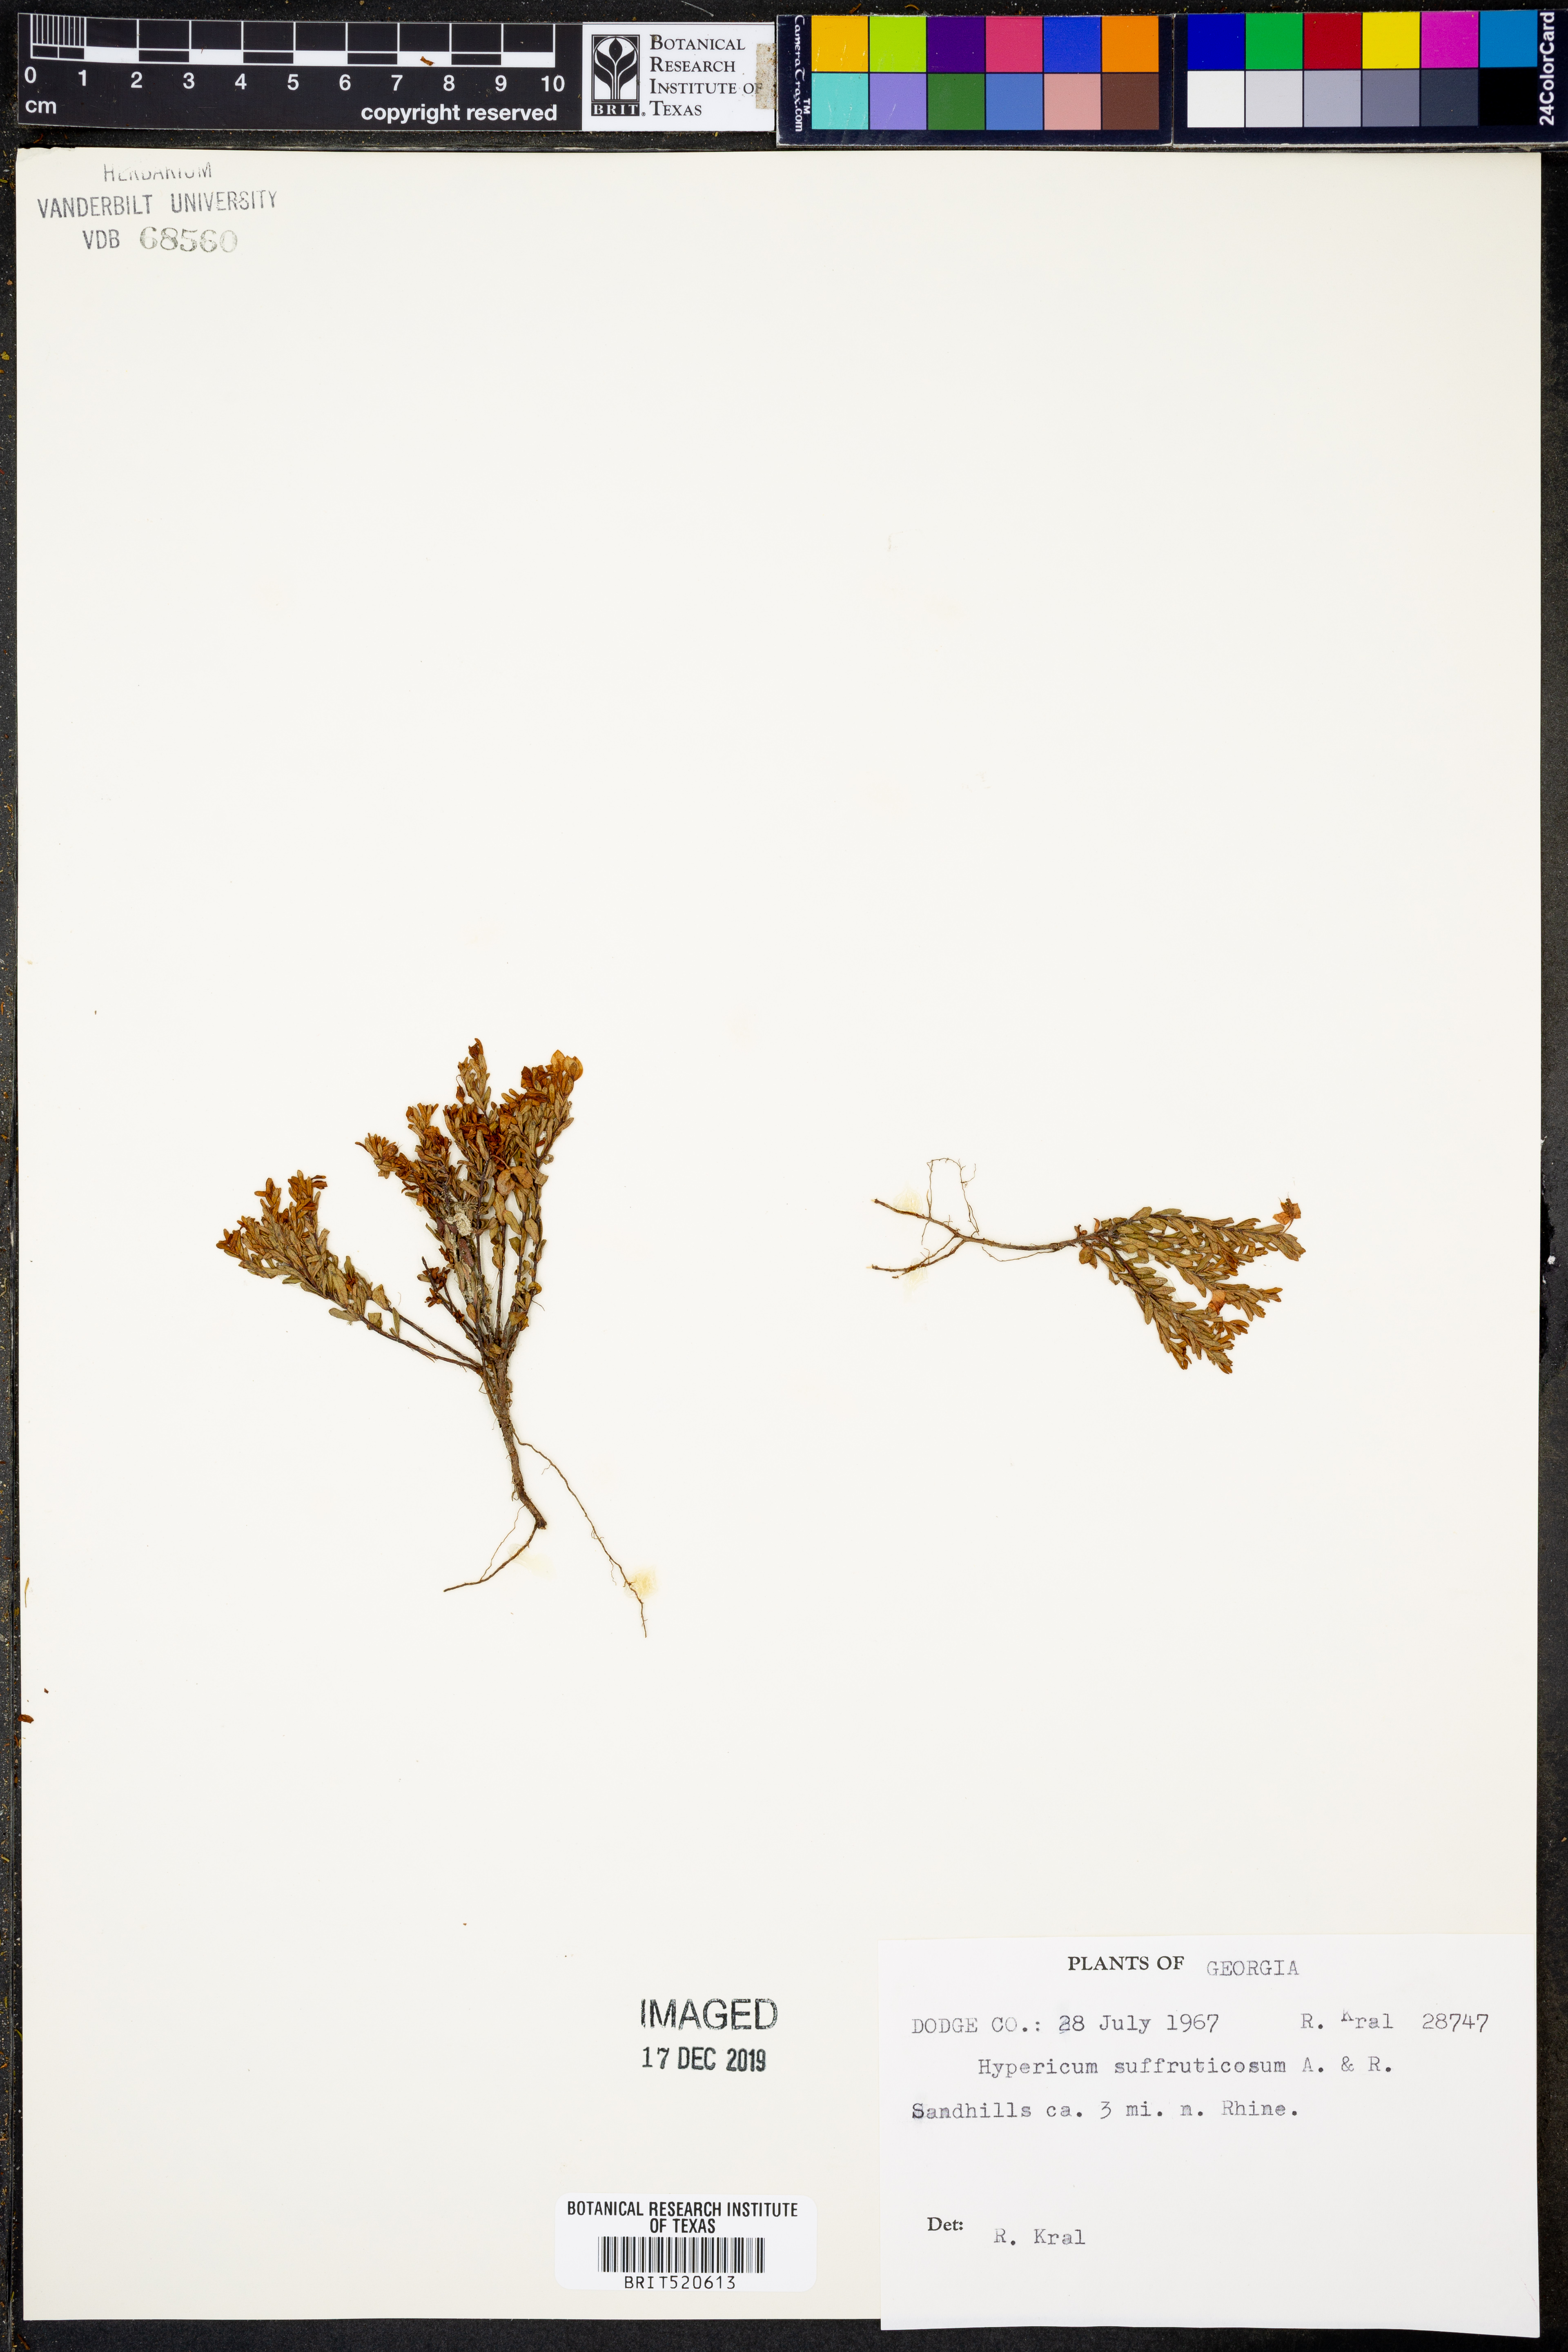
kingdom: Plantae
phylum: Tracheophyta
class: Magnoliopsida
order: Malpighiales
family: Hypericaceae
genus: Hypericum
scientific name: Hypericum suffruticosum
